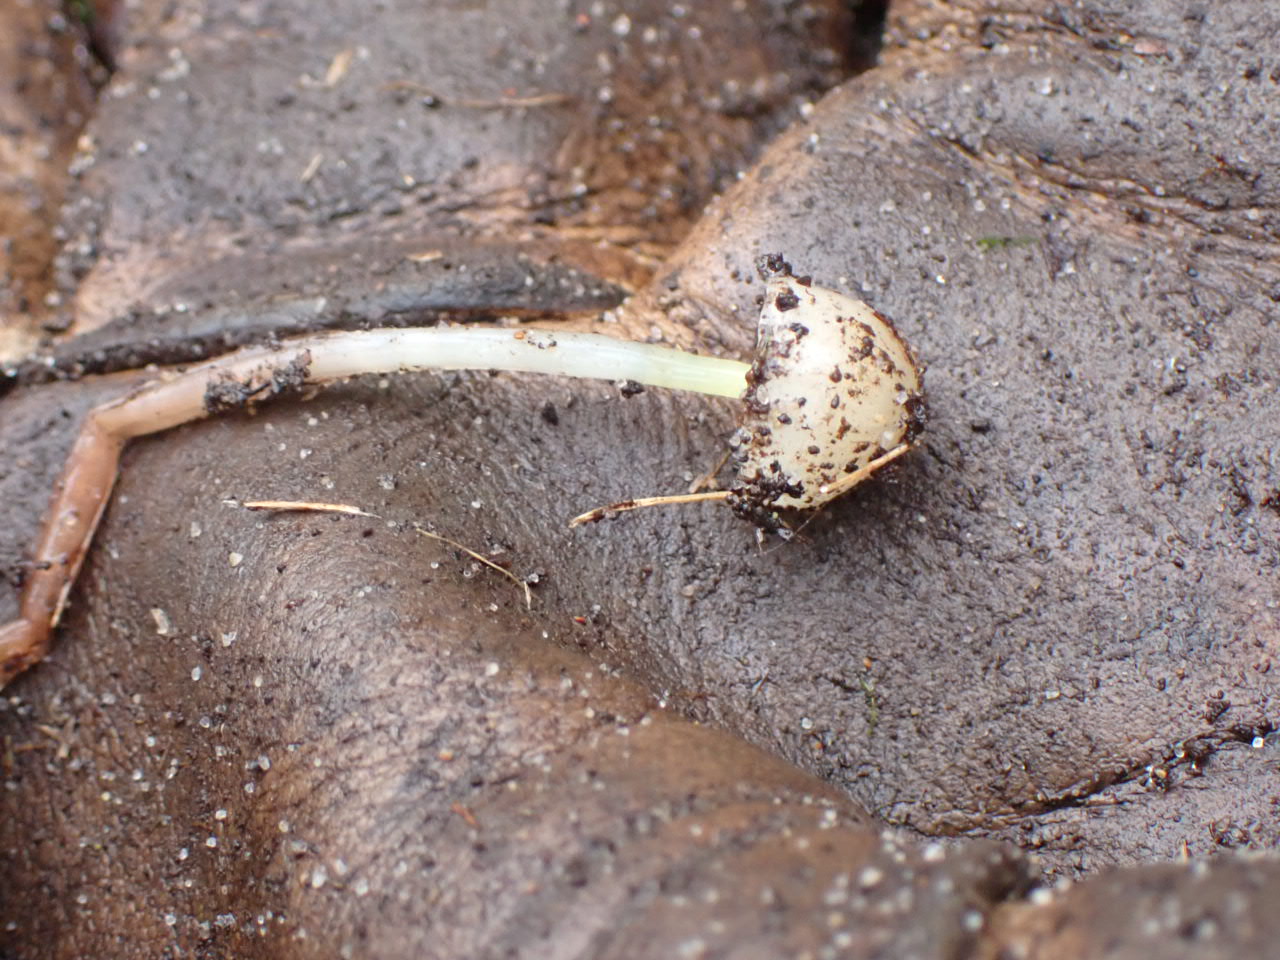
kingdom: Fungi
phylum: Basidiomycota
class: Agaricomycetes
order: Agaricales
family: Mycenaceae
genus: Mycena
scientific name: Mycena epipterygia
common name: gulstokket huesvamp
